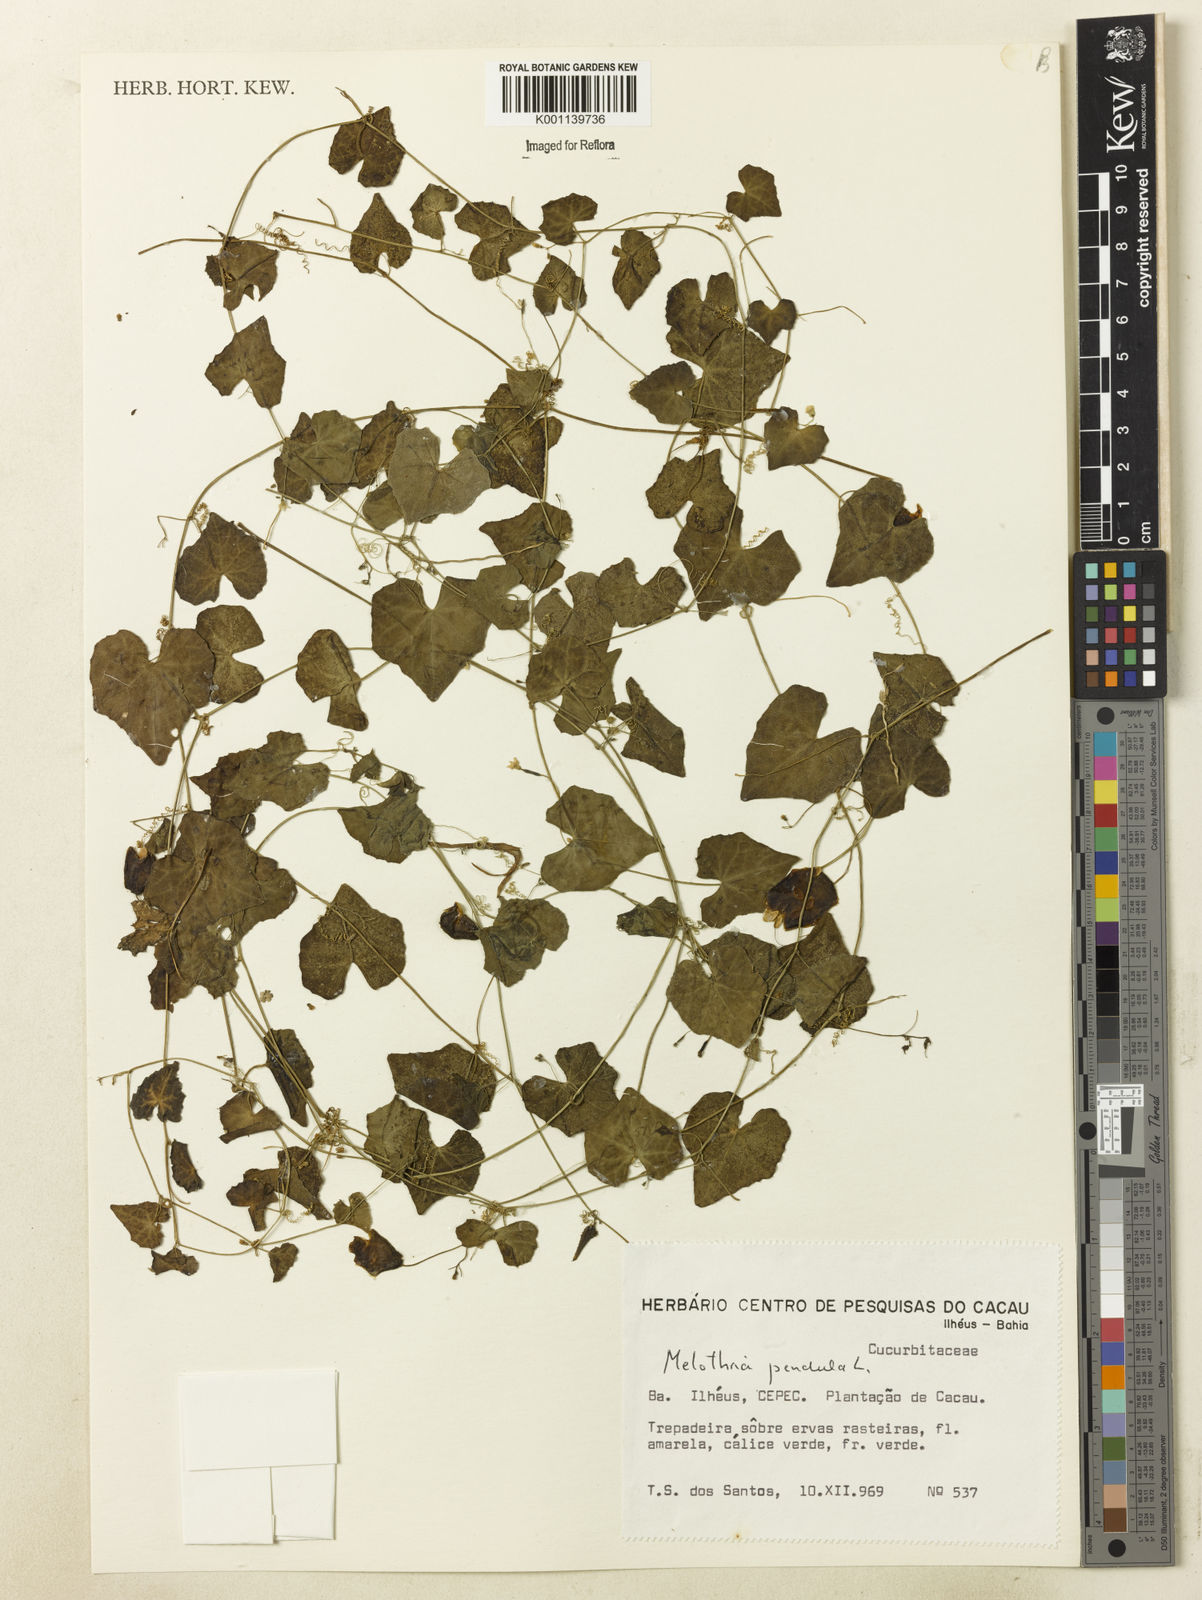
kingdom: Plantae
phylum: Tracheophyta
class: Magnoliopsida
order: Cucurbitales
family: Cucurbitaceae
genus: Melothria
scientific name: Melothria pendula
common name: Creeping-cucumber
